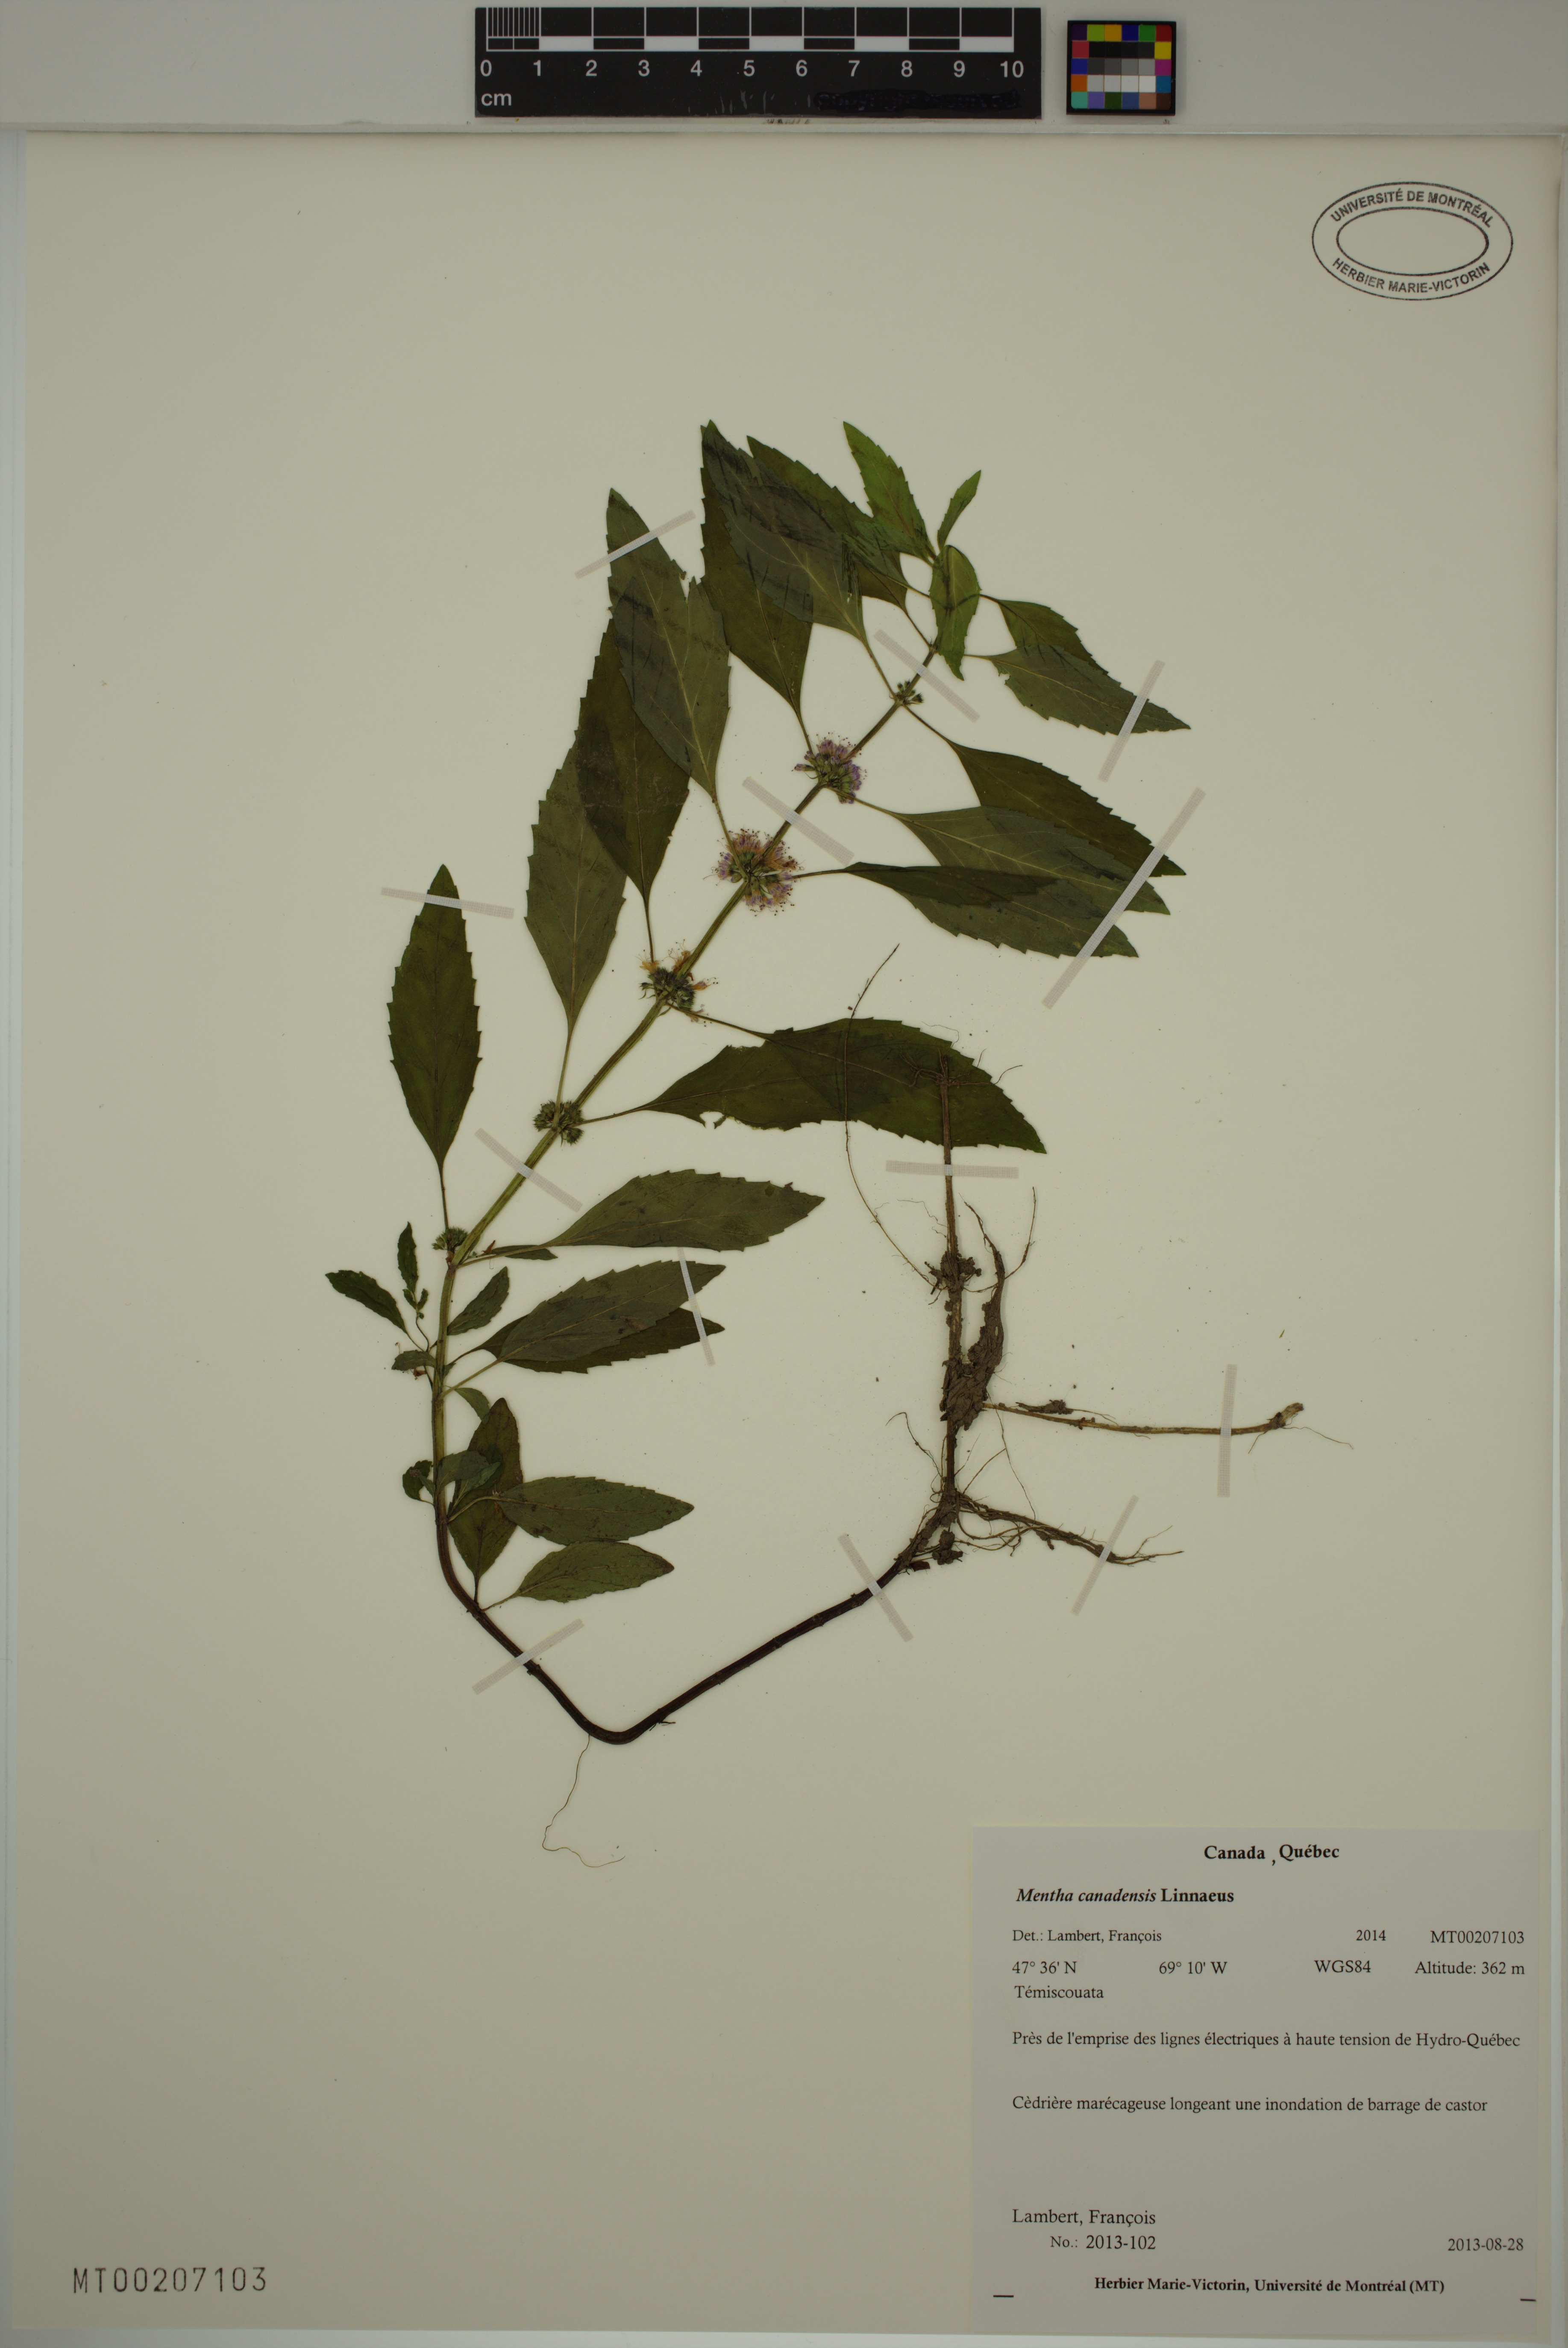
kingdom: Plantae
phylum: Tracheophyta
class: Magnoliopsida
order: Lamiales
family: Lamiaceae
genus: Mentha
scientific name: Mentha canadensis
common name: American corn mint
